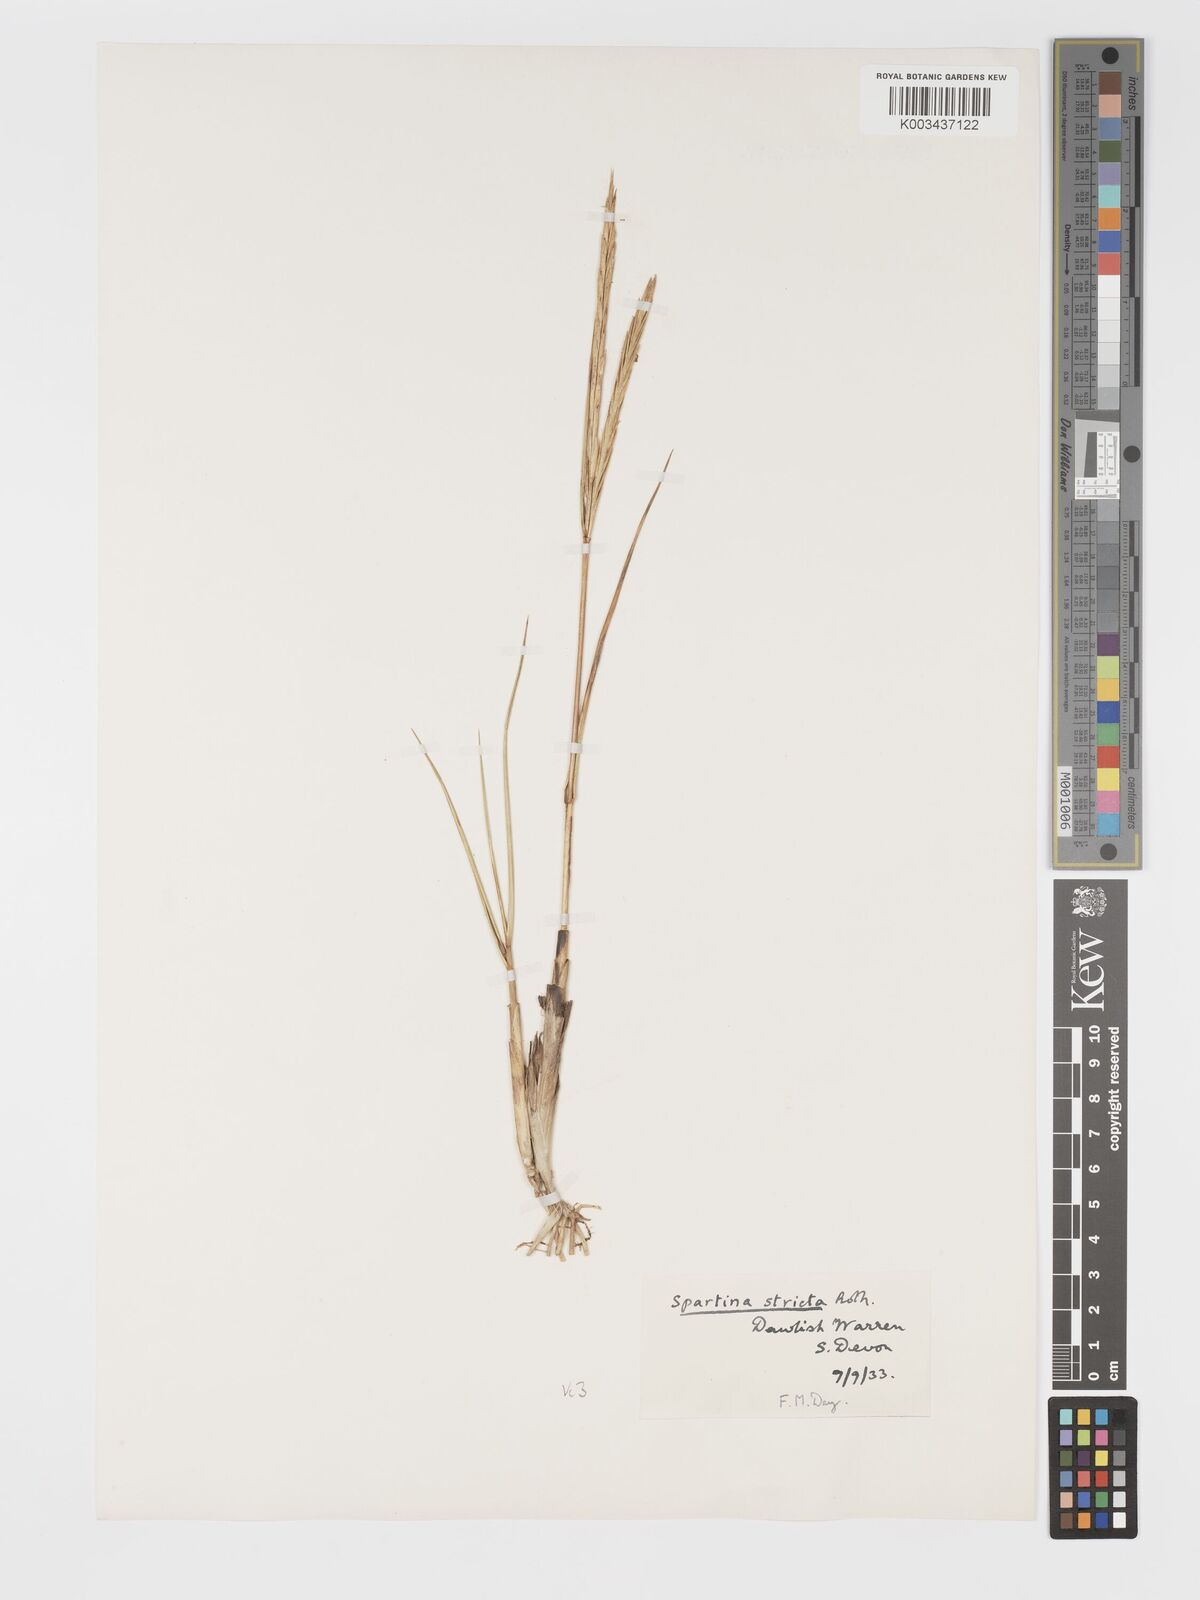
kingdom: Plantae
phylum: Tracheophyta
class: Liliopsida
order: Poales
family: Poaceae
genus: Sporobolus
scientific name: Sporobolus maritimus
